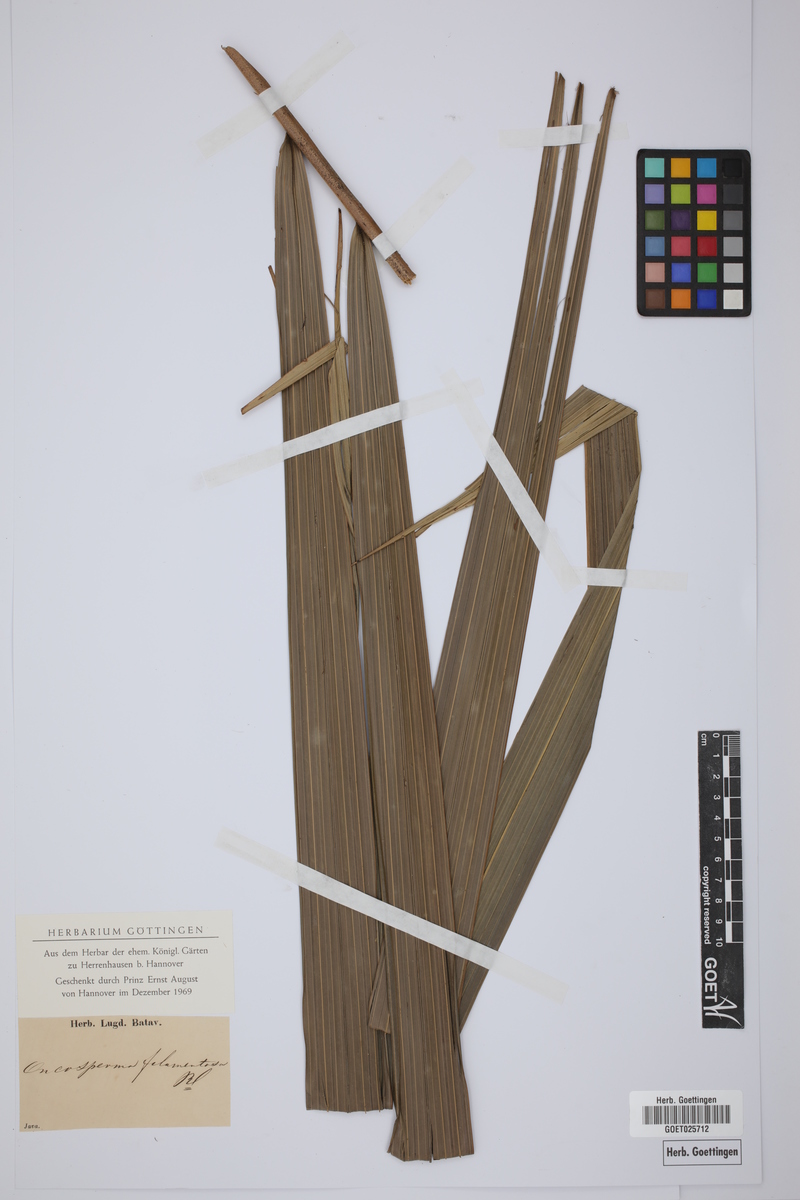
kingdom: Plantae
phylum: Tracheophyta
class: Liliopsida
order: Arecales
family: Arecaceae
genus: Oncosperma
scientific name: Oncosperma tigillarium
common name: Nibong
